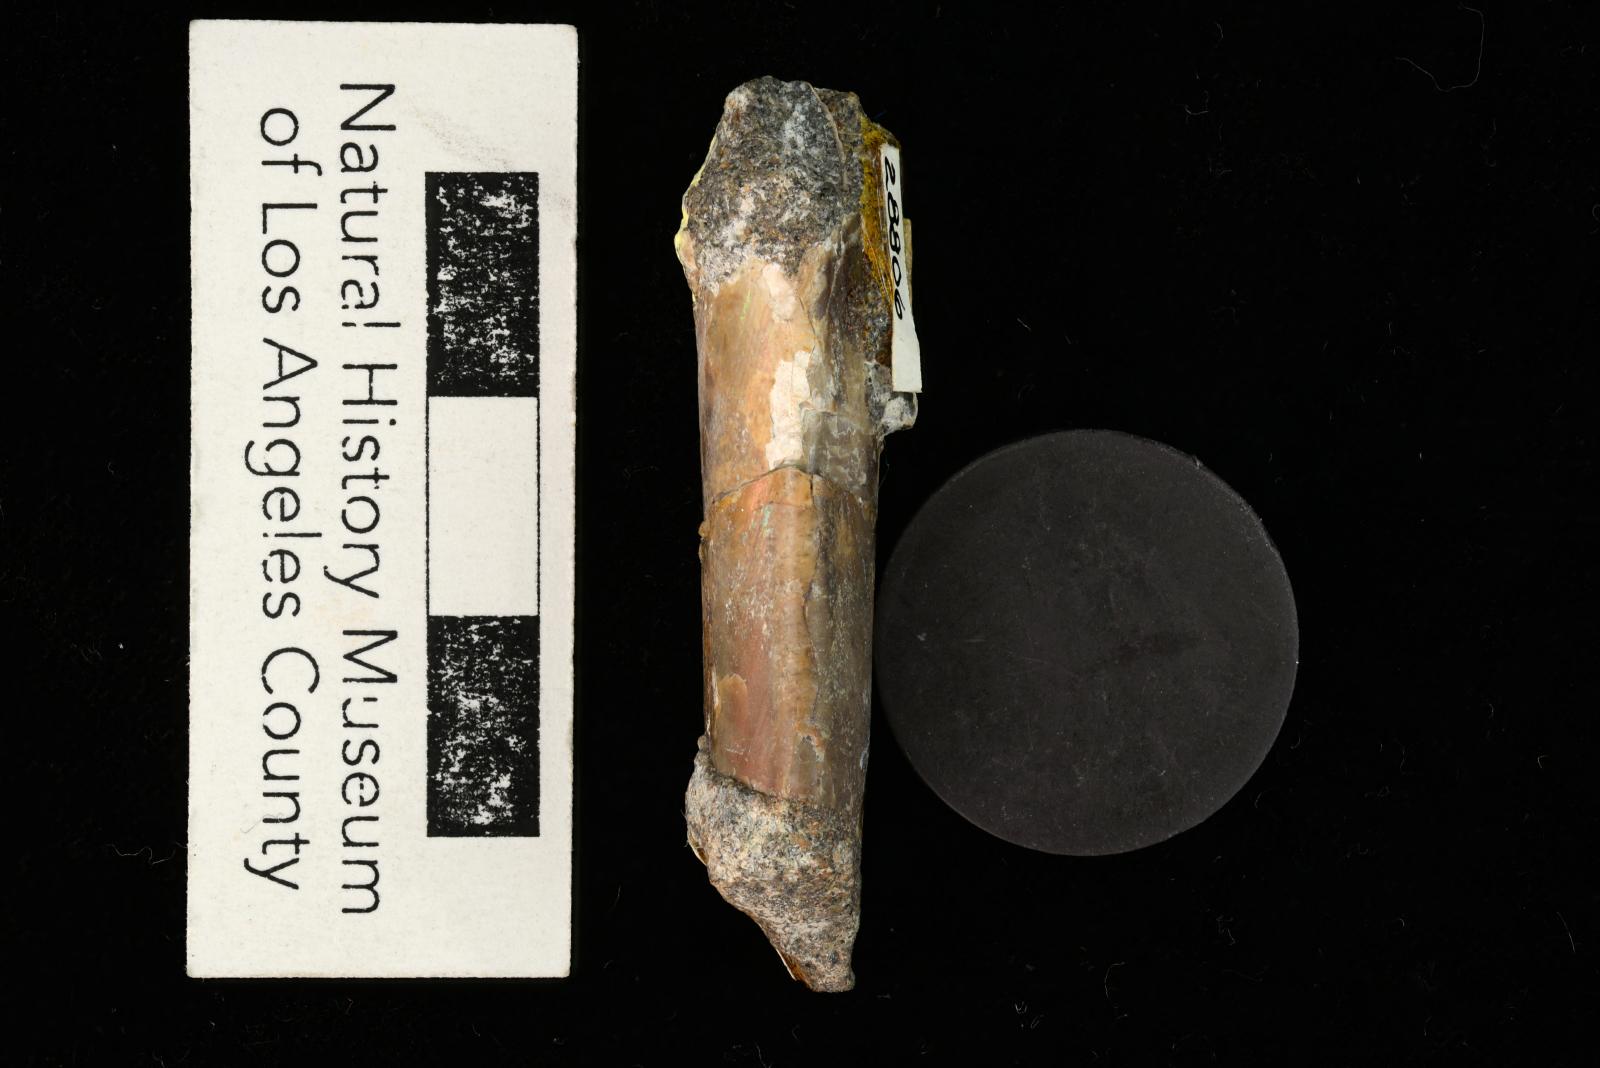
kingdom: Animalia
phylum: Mollusca
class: Cephalopoda
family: Baculitidae
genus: Baculites
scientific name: Baculites kirki
